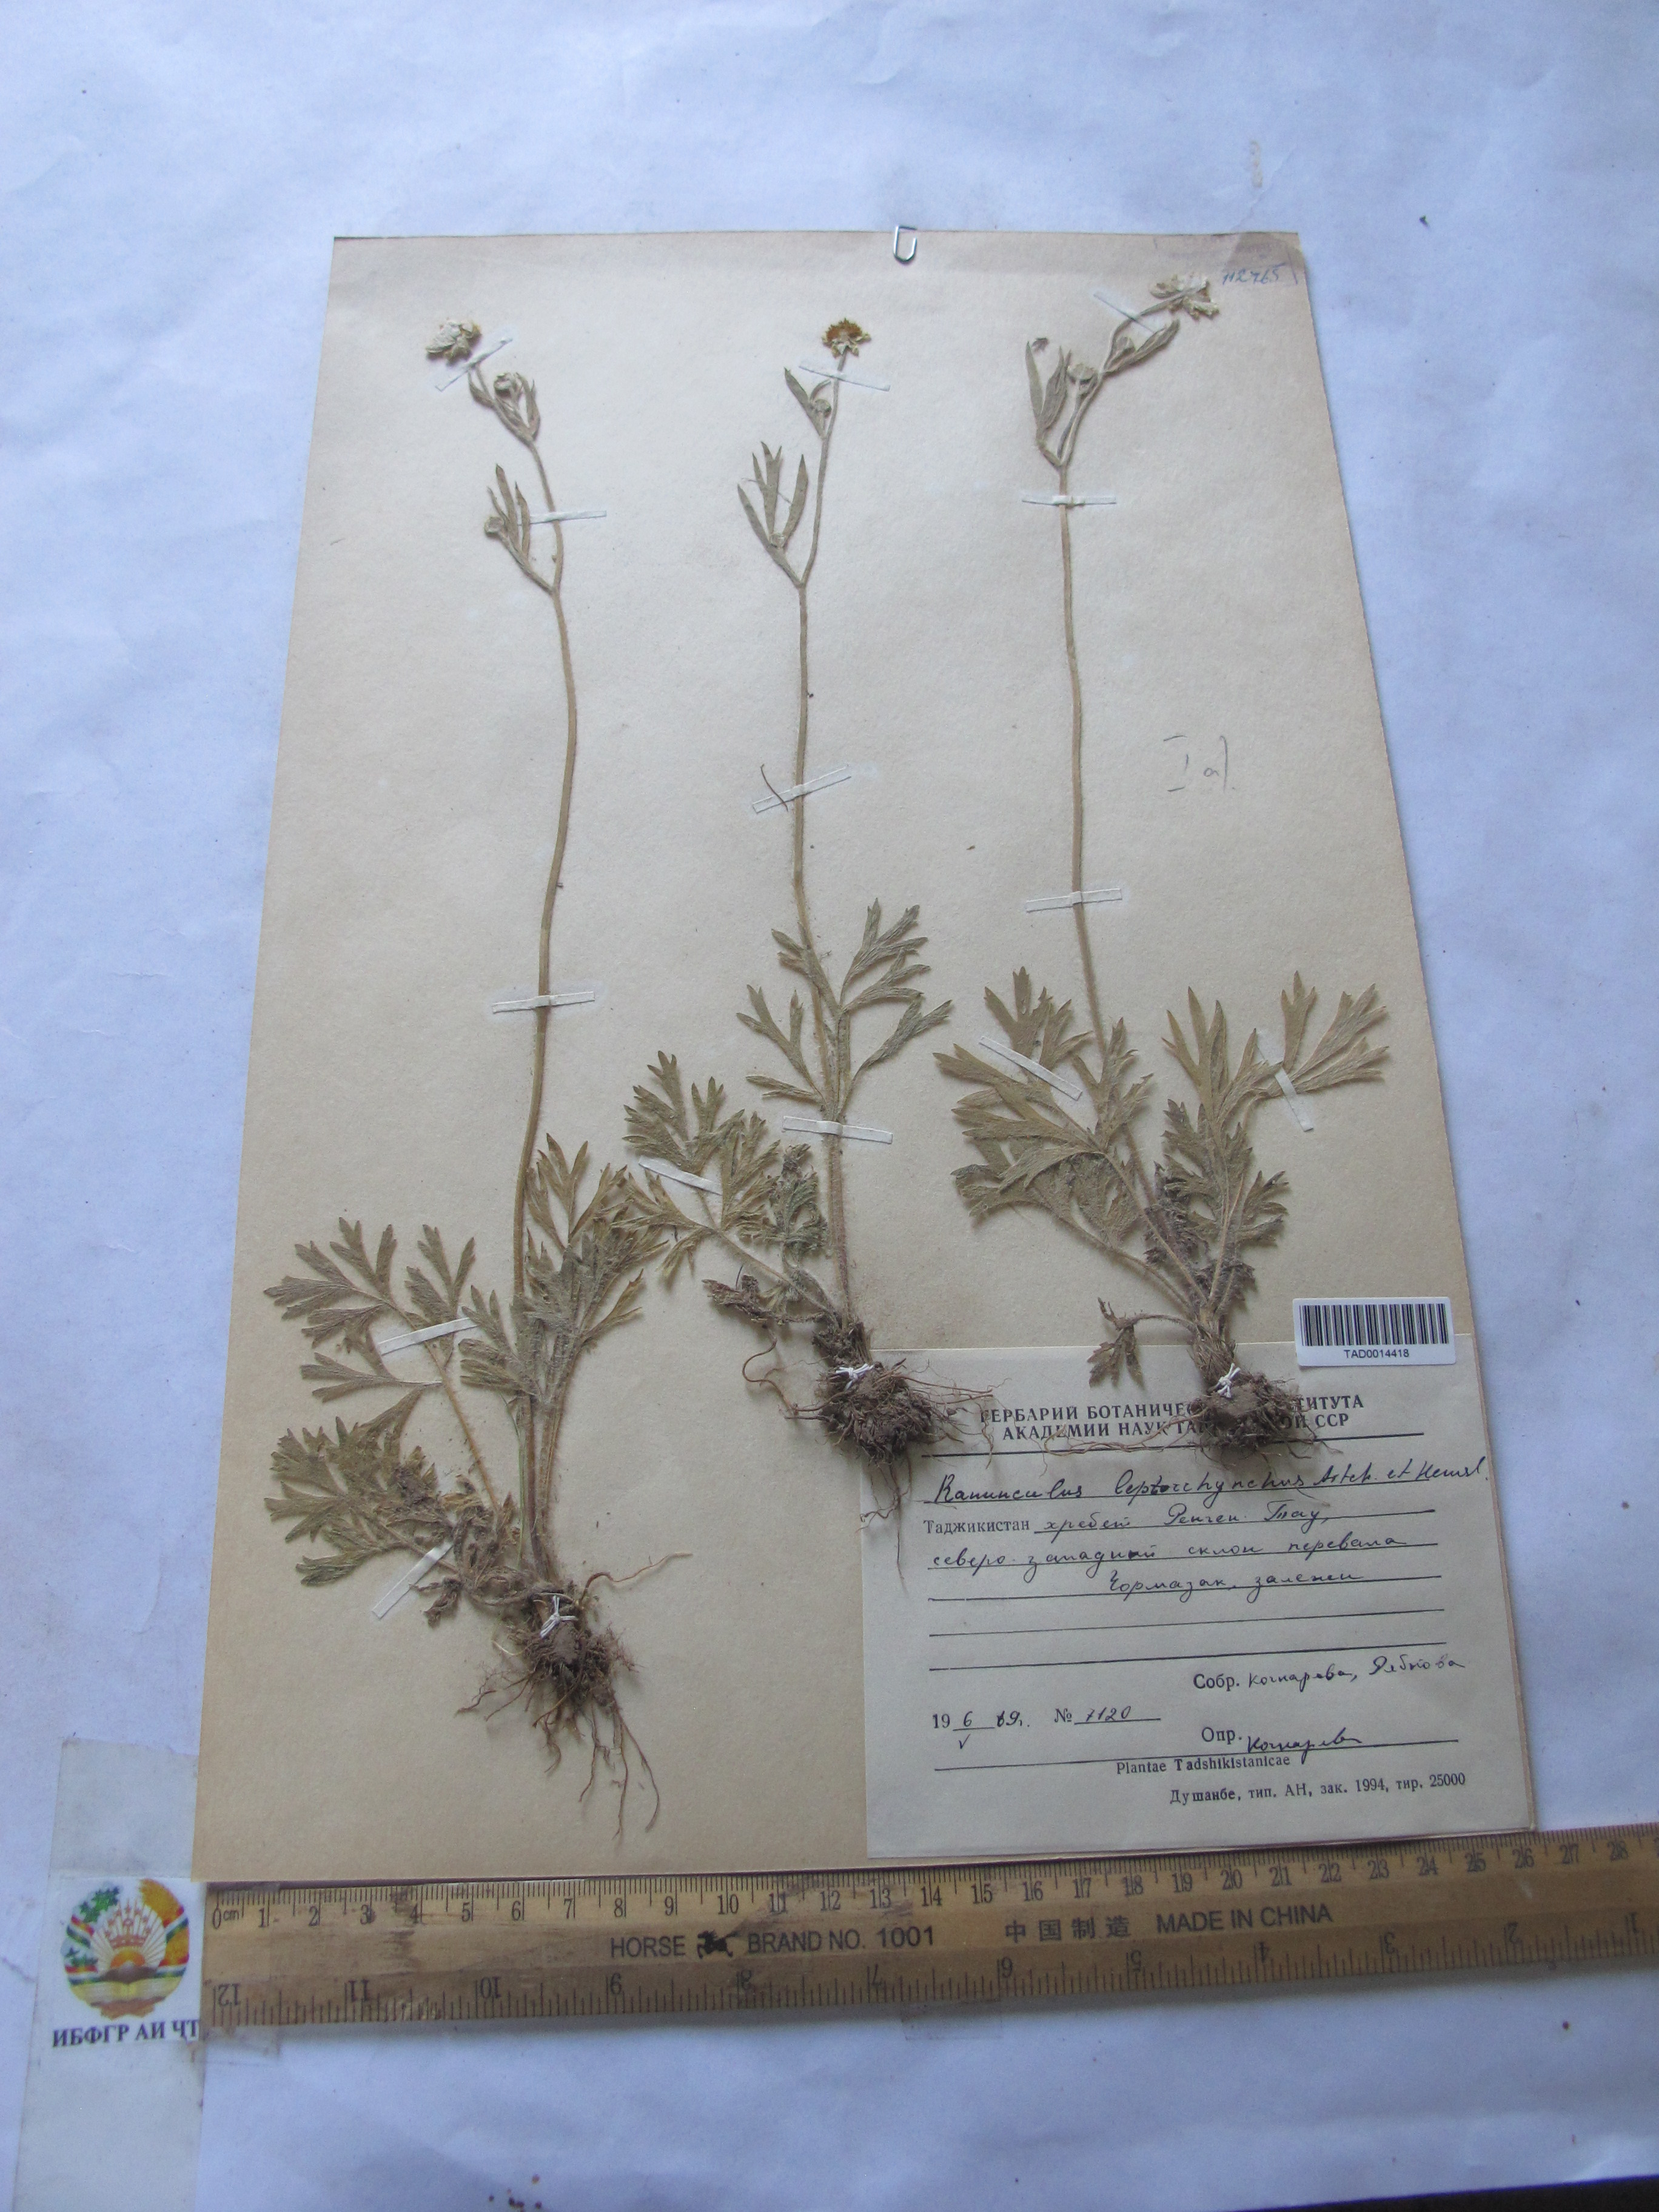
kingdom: Plantae
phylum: Tracheophyta
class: Magnoliopsida
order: Ranunculales
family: Ranunculaceae
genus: Ranunculus
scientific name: Ranunculus leptorrhynchus
